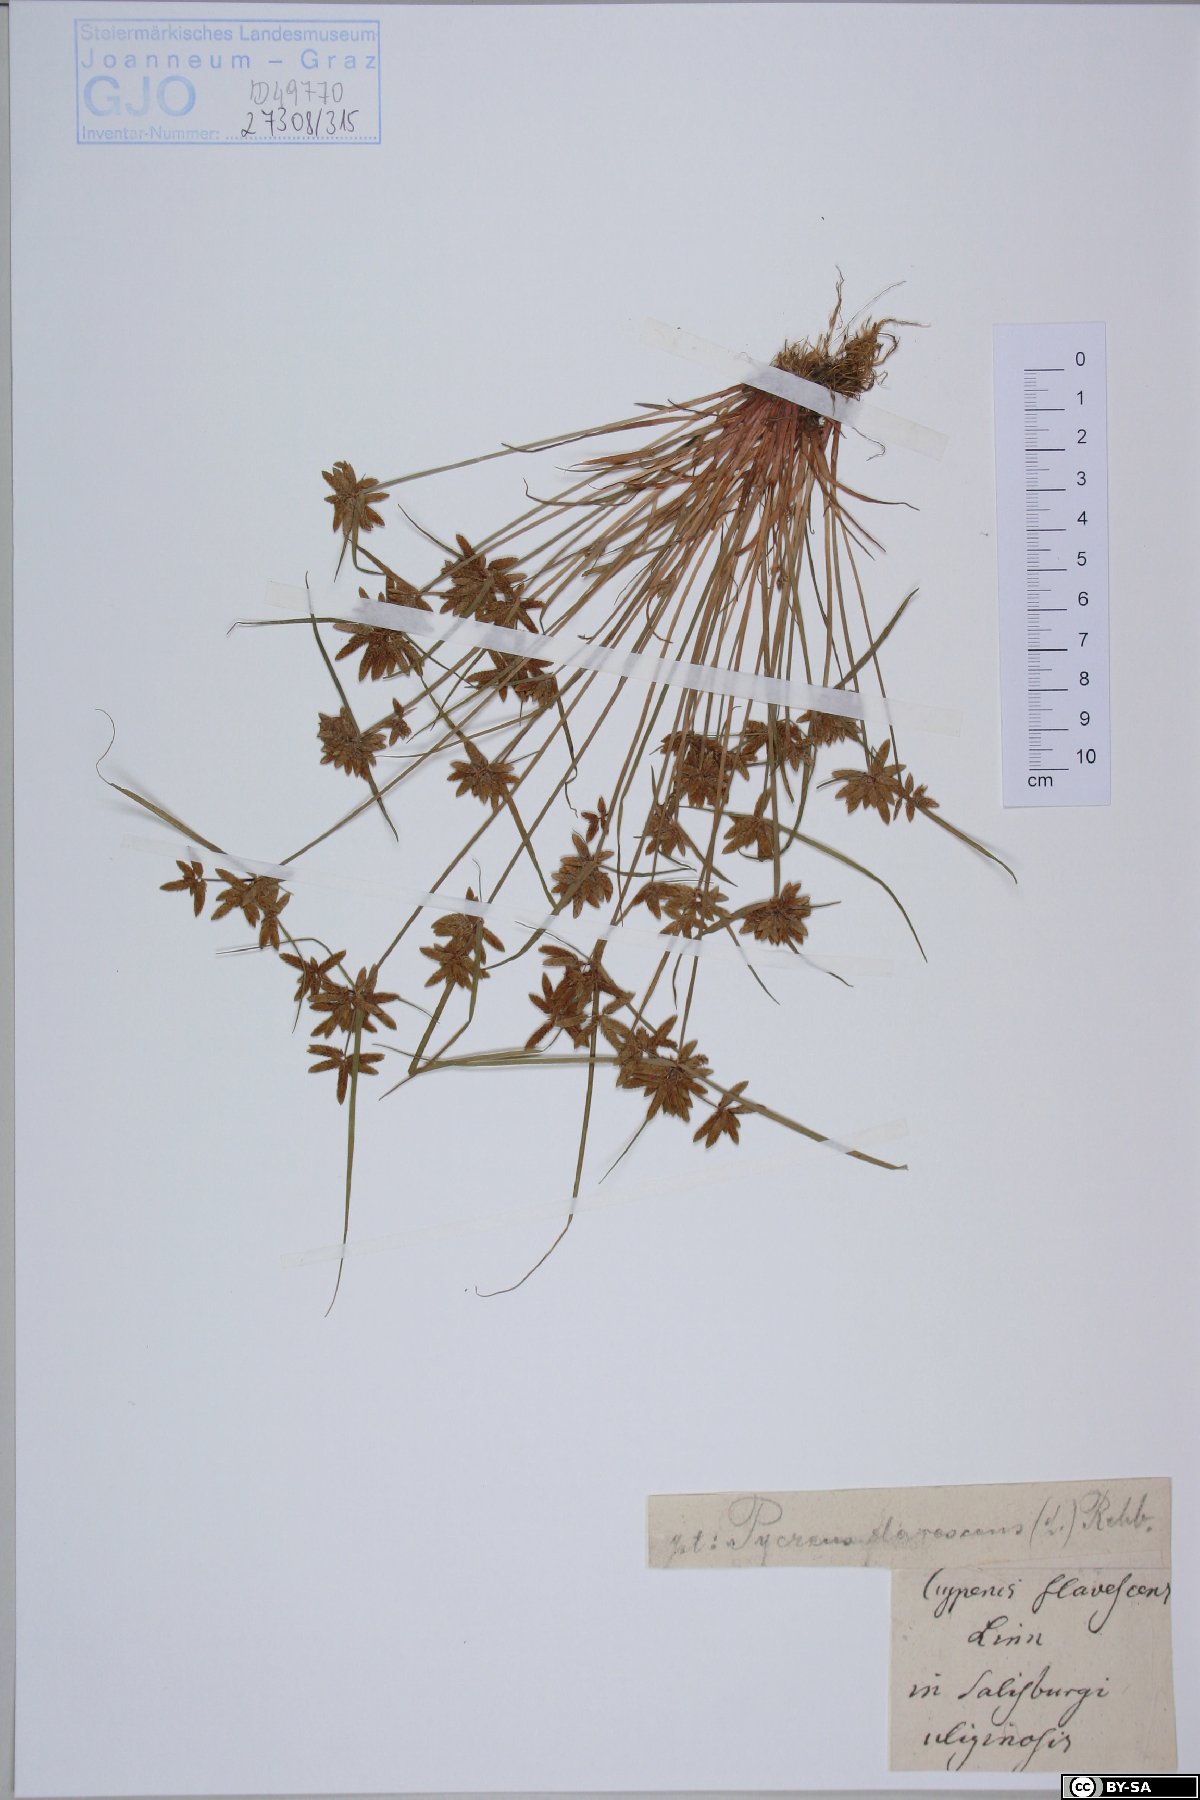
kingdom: Plantae
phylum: Tracheophyta
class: Liliopsida
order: Poales
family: Cyperaceae
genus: Cyperus
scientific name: Cyperus flavescens
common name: Yellow galingale
